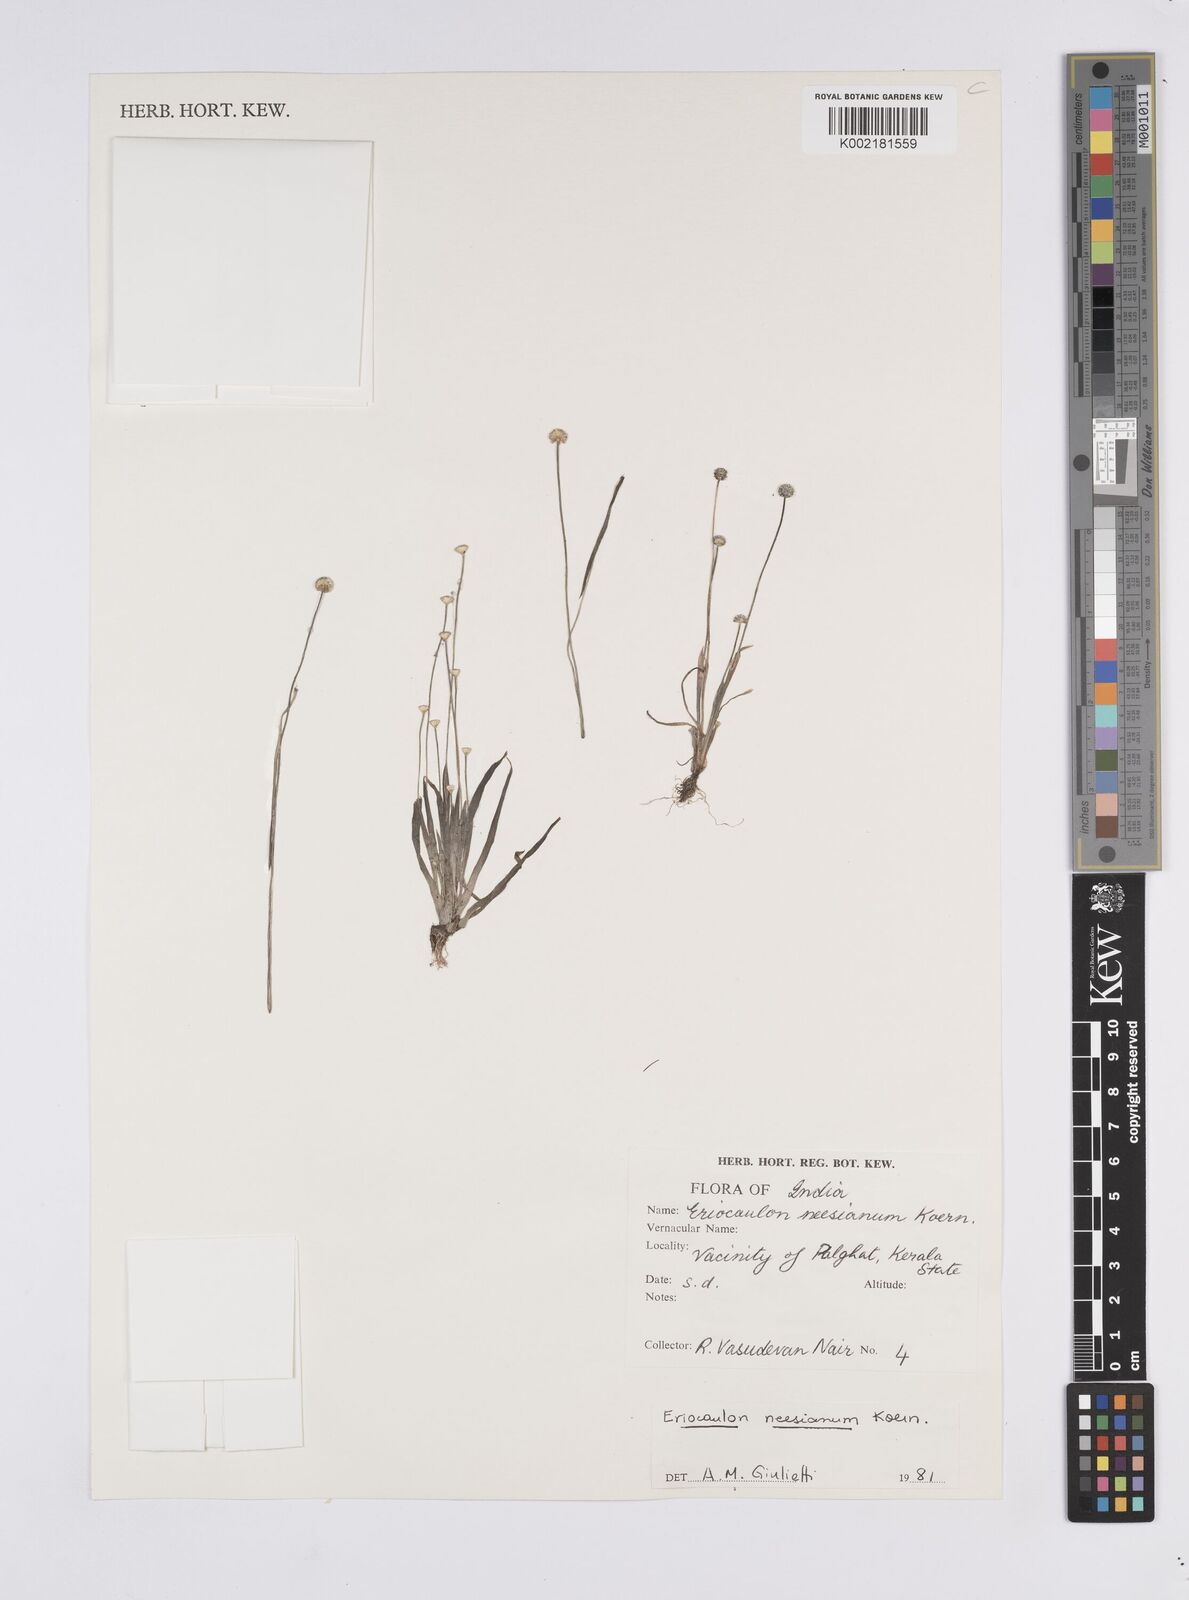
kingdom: Plantae
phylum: Tracheophyta
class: Liliopsida
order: Poales
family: Eriocaulaceae
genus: Eriocaulon
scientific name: Eriocaulon thwaitesii
